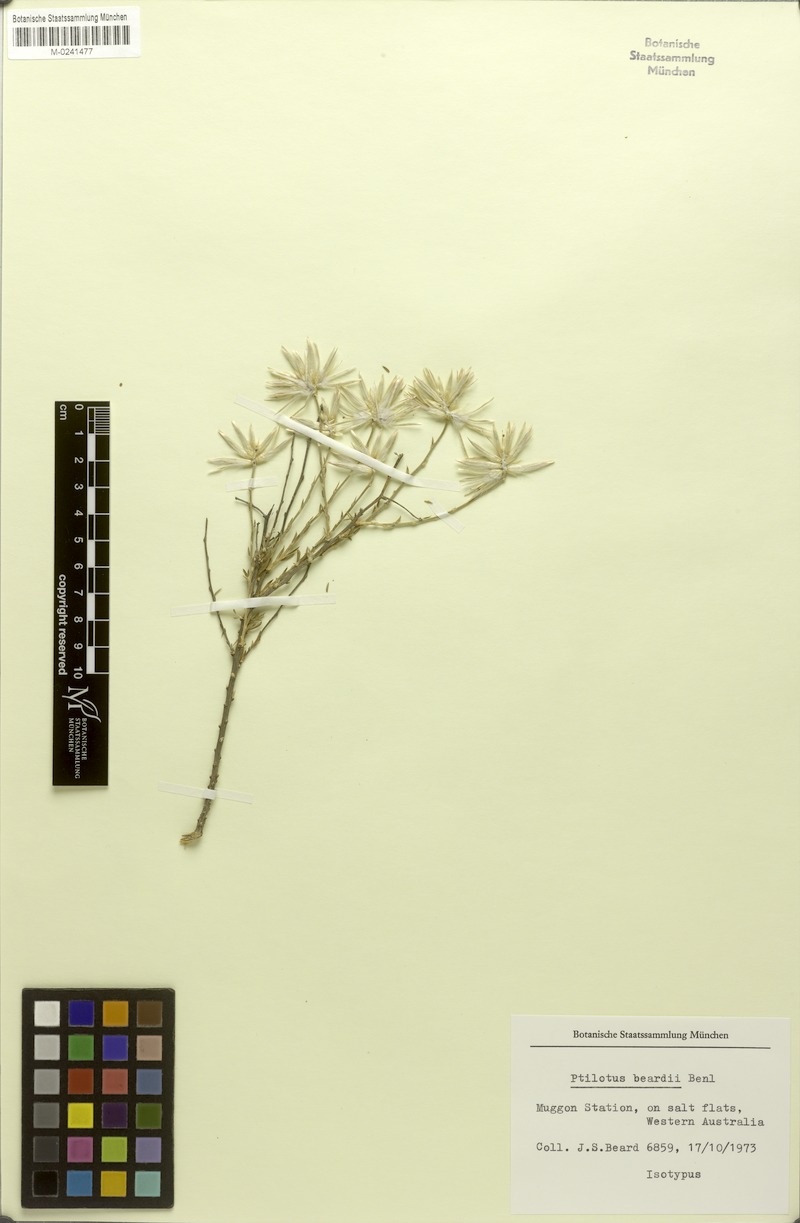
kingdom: Plantae
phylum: Tracheophyta
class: Magnoliopsida
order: Caryophyllales
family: Amaranthaceae
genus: Ptilotus
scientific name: Ptilotus beardii
